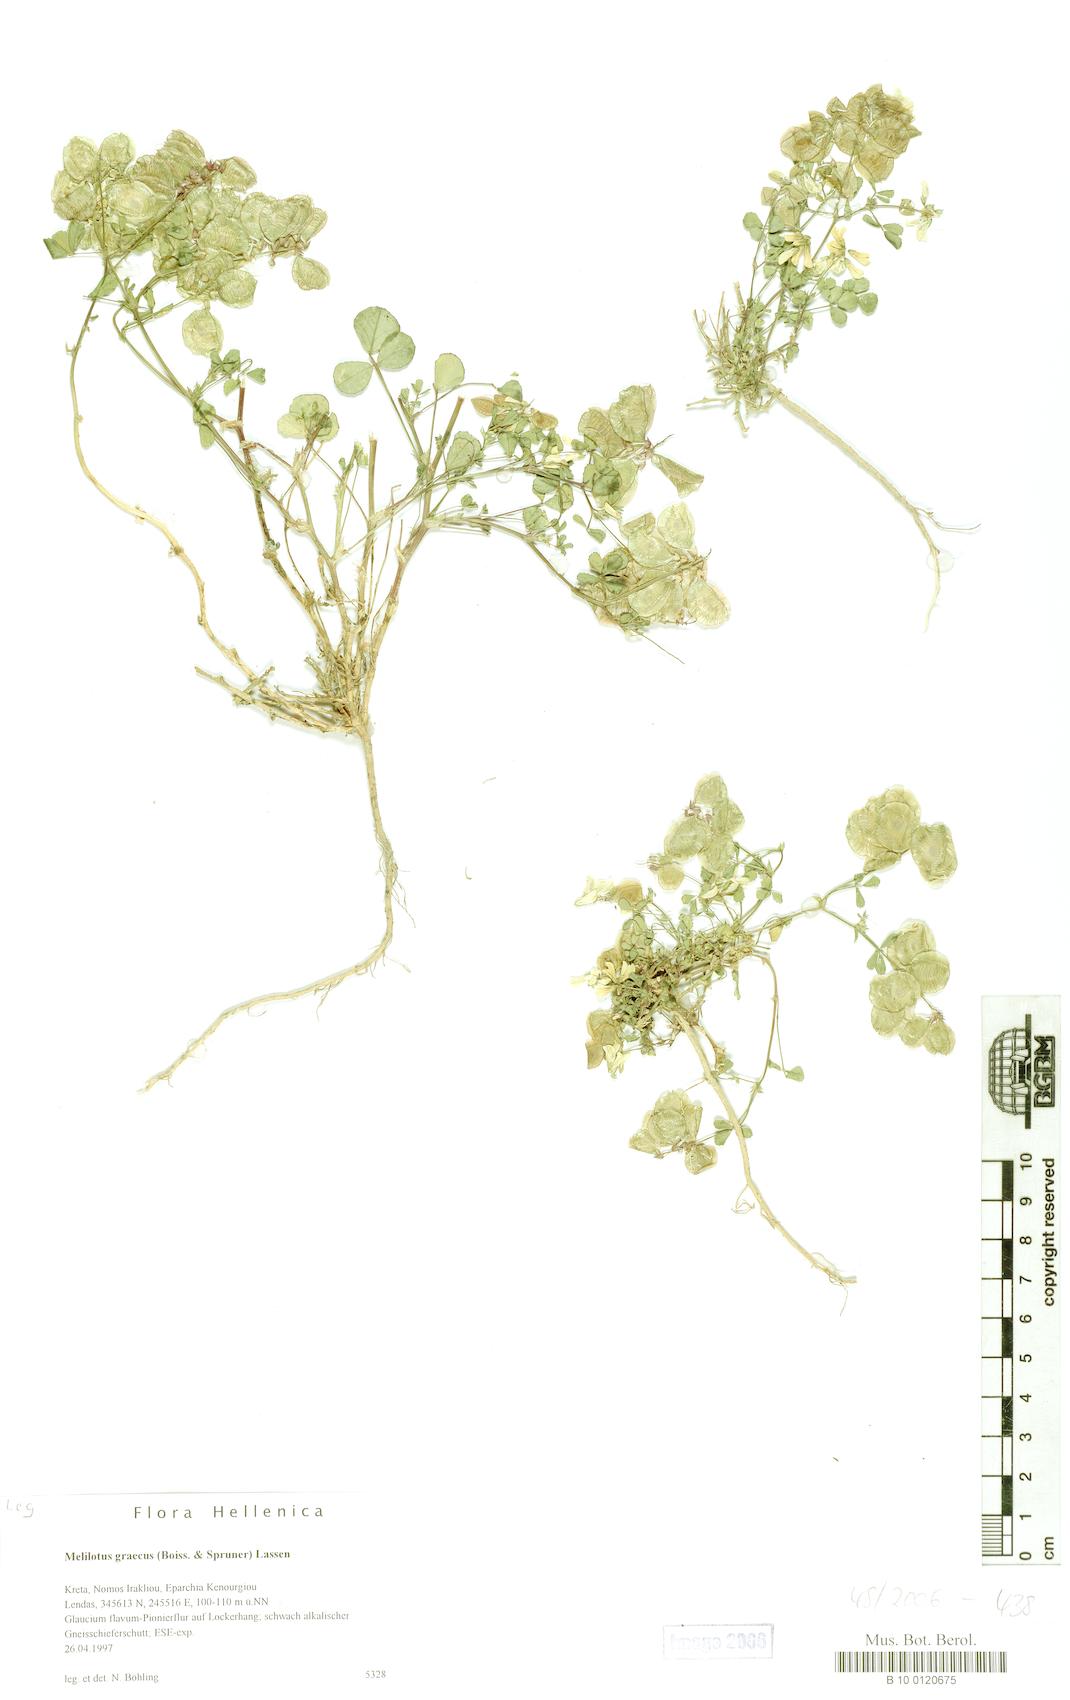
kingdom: Plantae
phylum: Tracheophyta
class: Magnoliopsida
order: Fabales
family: Fabaceae
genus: Trigonella
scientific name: Trigonella graeca
